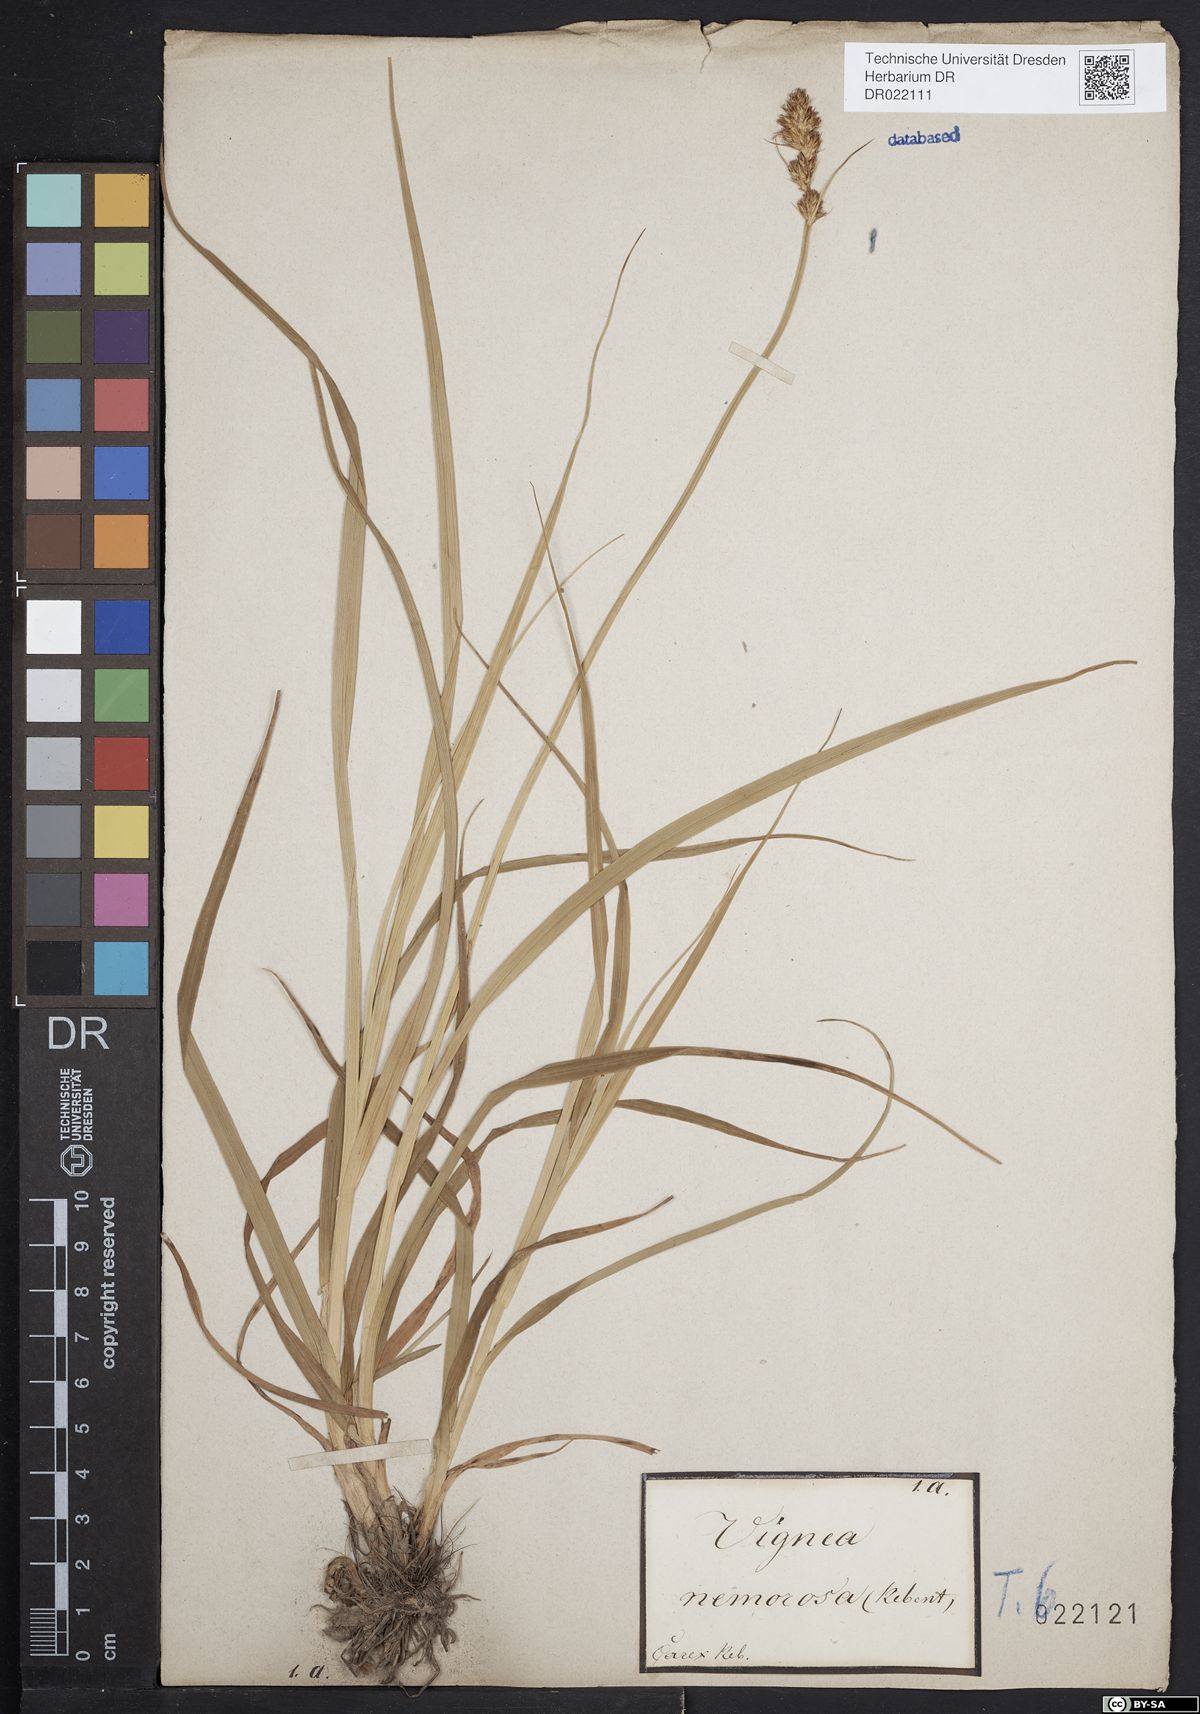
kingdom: Plantae
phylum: Tracheophyta
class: Liliopsida
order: Poales
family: Cyperaceae
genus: Carex
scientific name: Carex vulpina
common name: True fox-sedge
